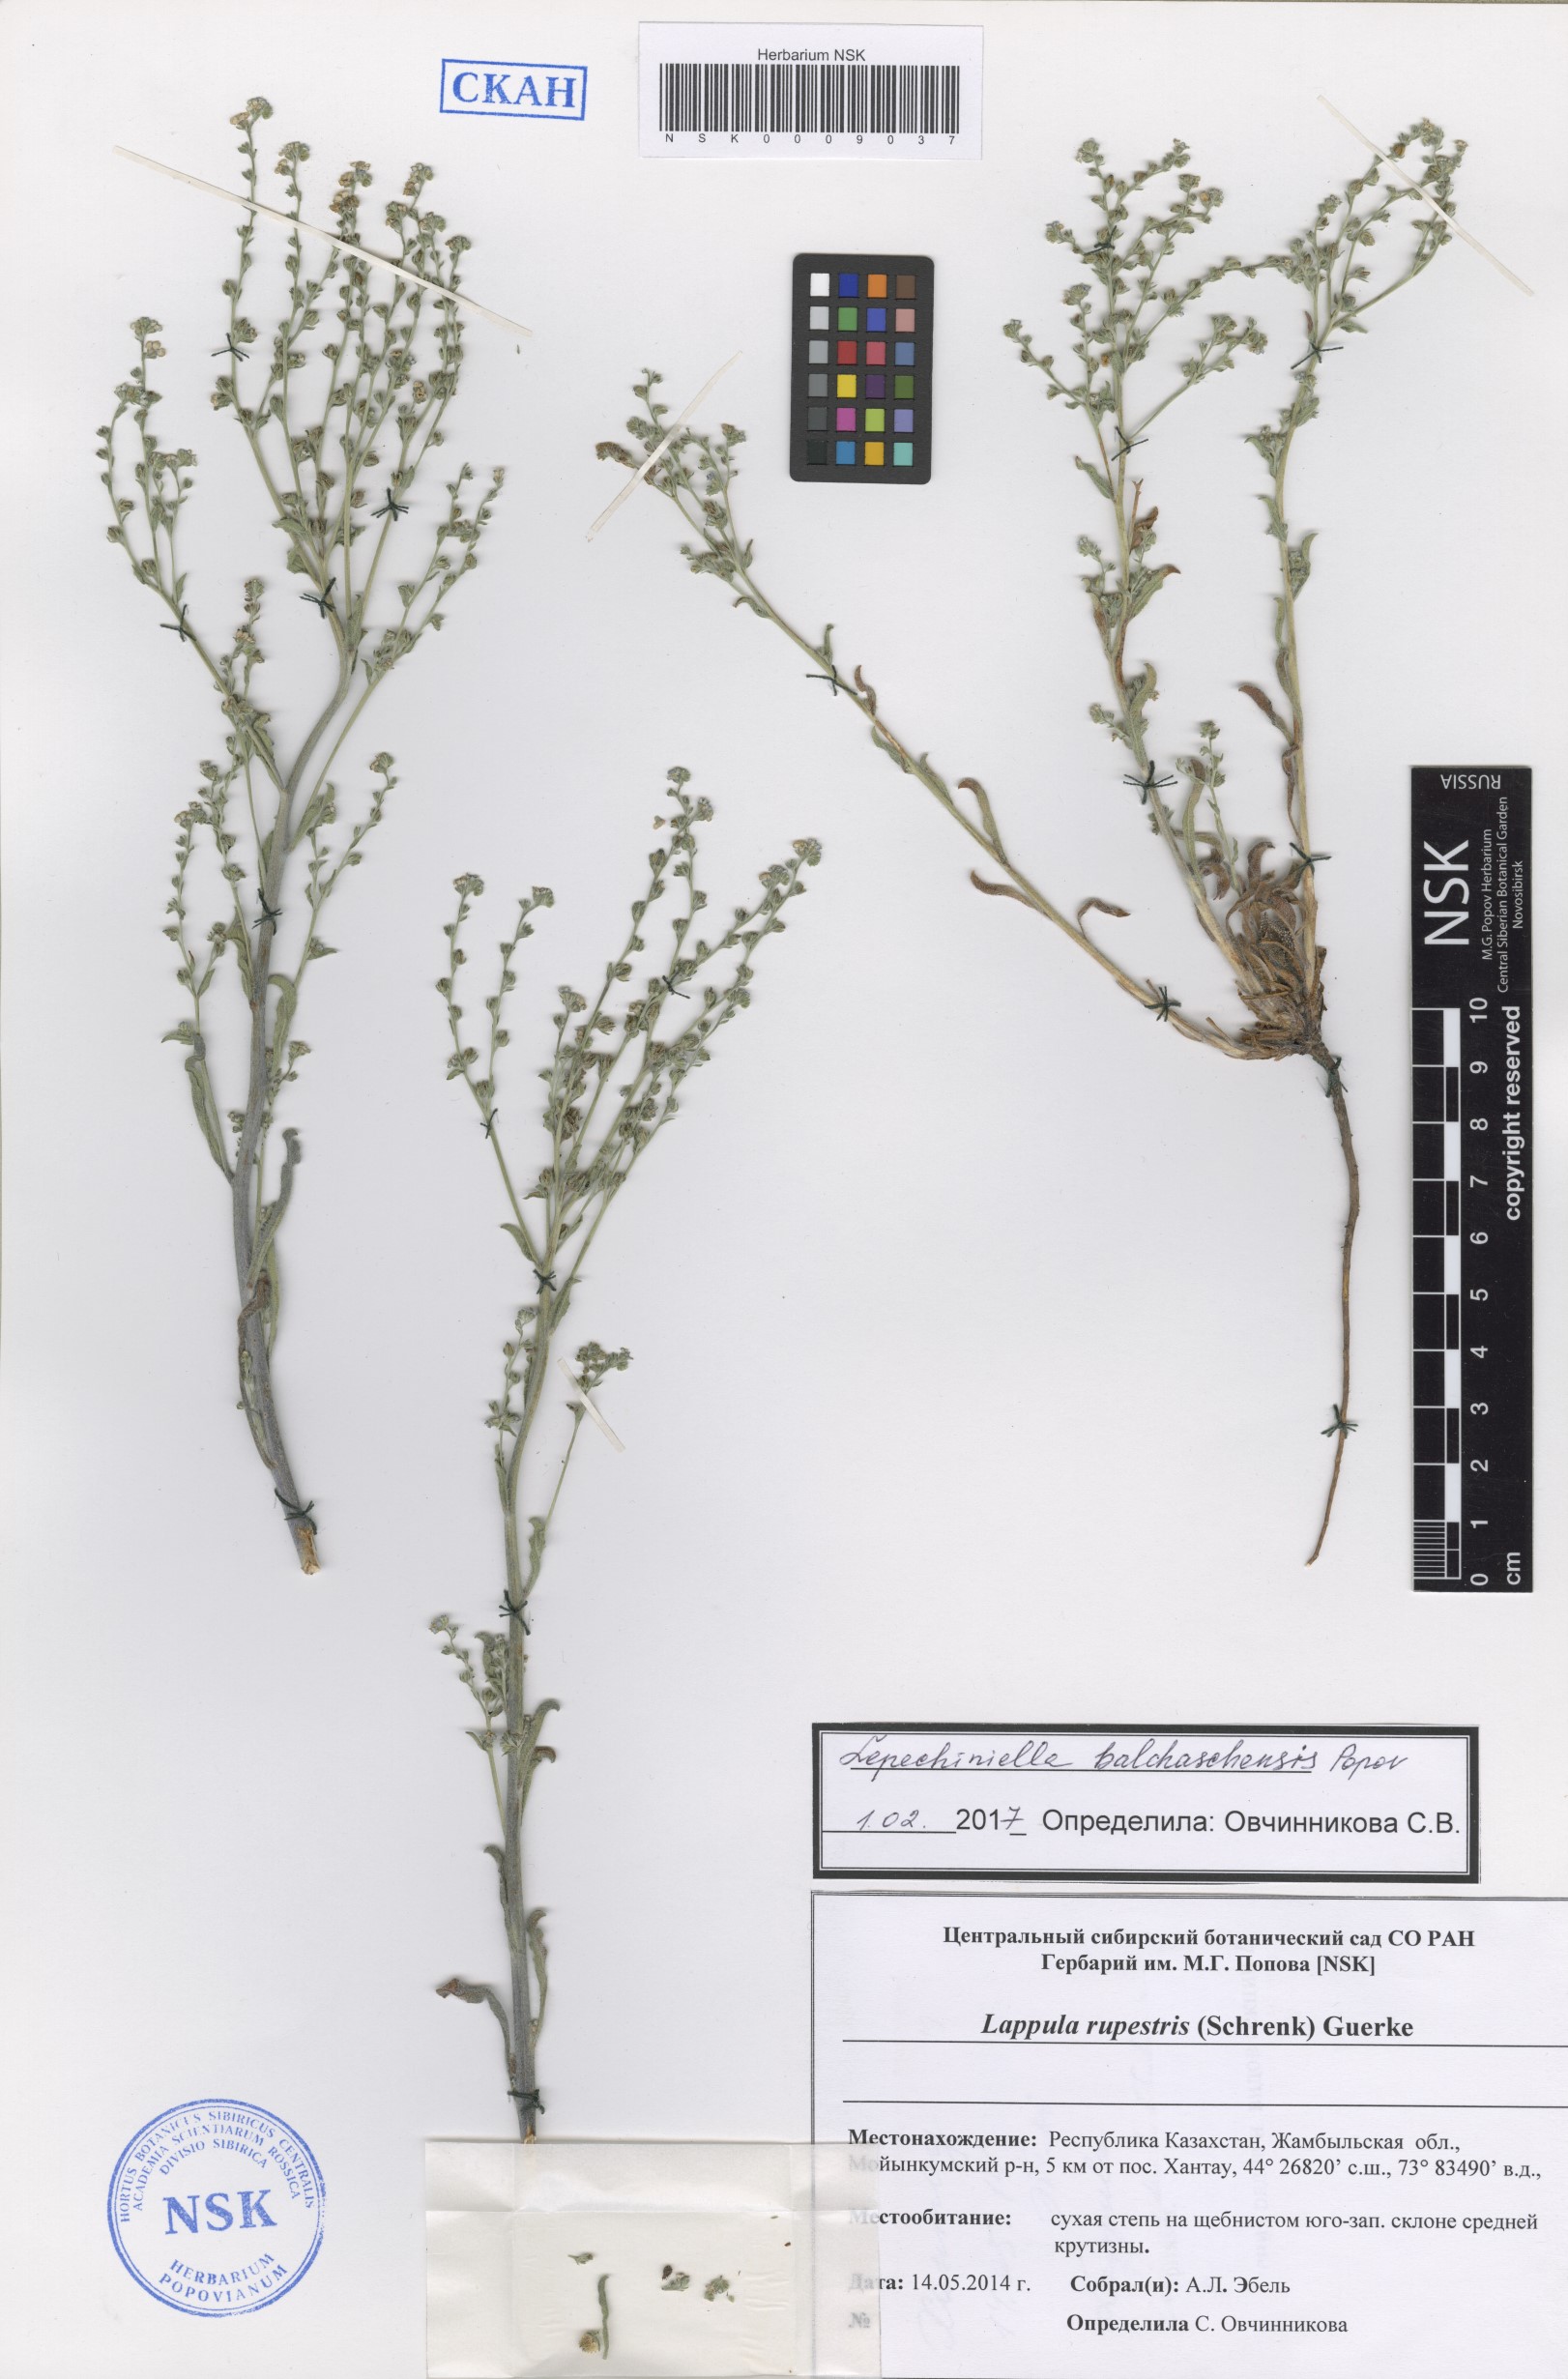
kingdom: Plantae
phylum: Tracheophyta
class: Magnoliopsida
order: Boraginales
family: Boraginaceae
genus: Lepechiniella
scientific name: Lepechiniella lasiocarpa
